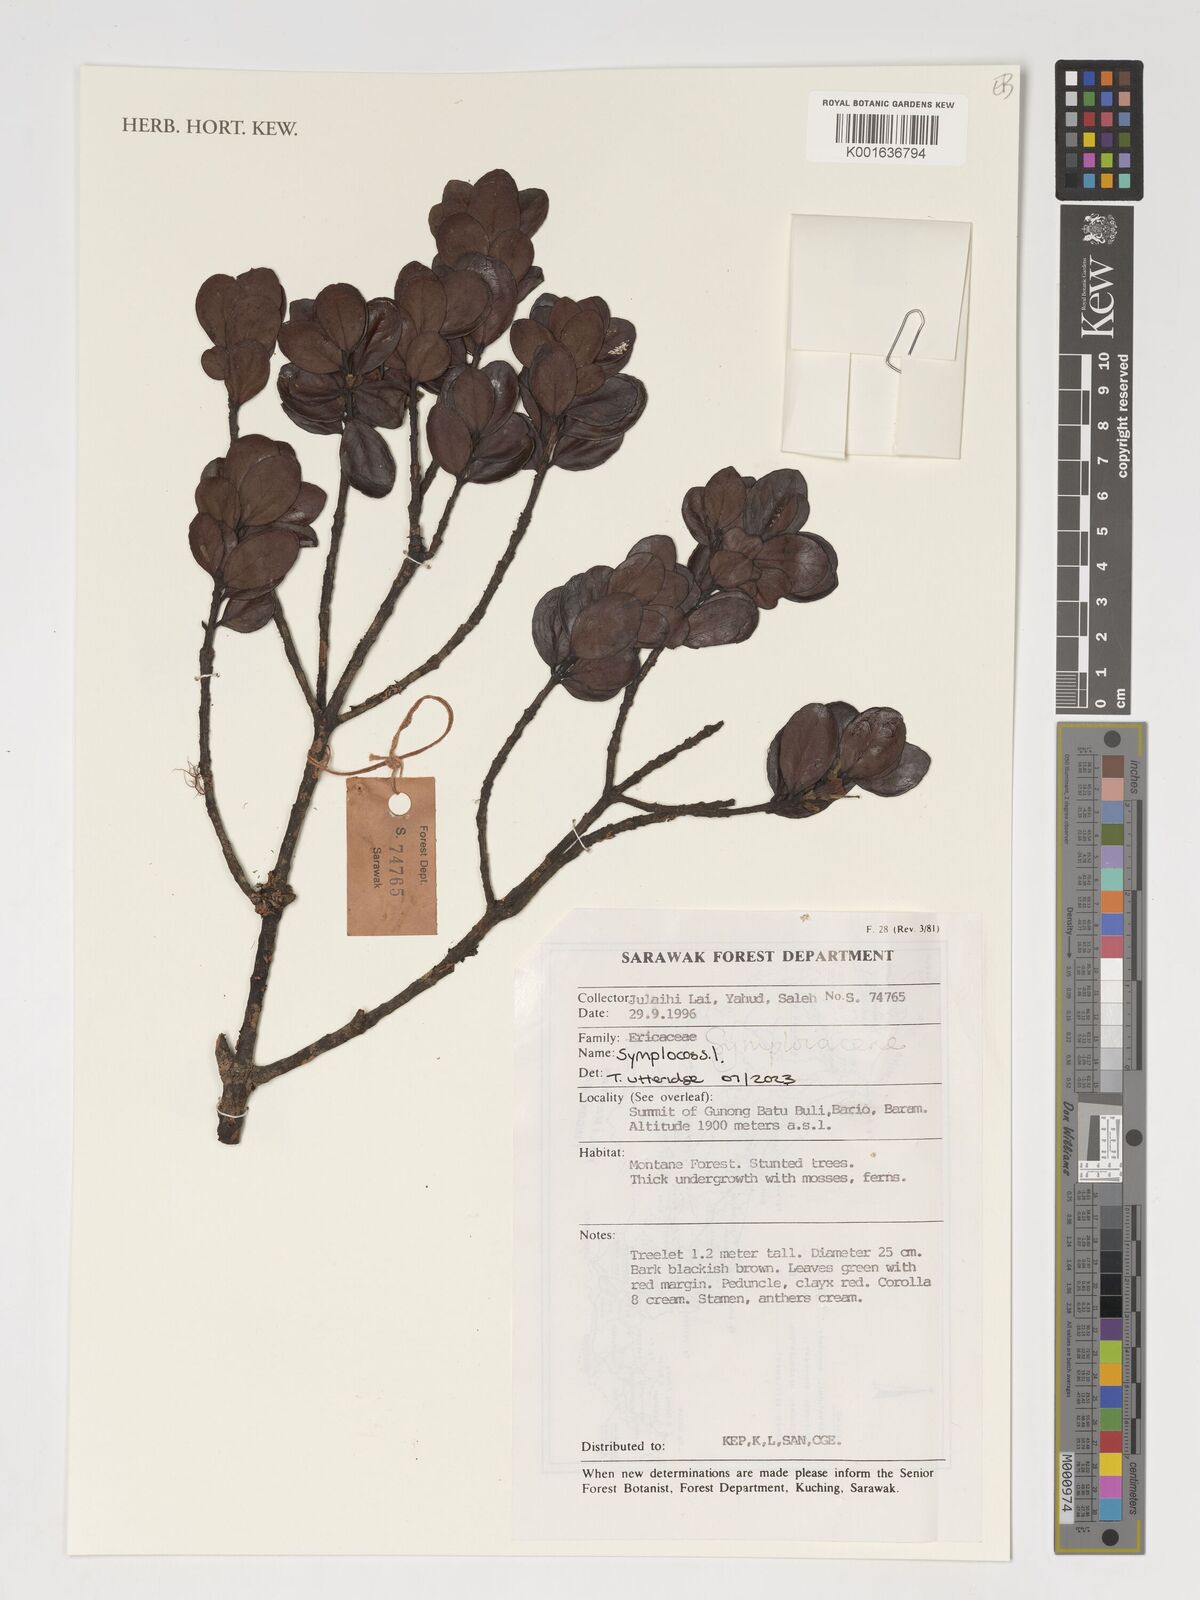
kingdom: Plantae
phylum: Tracheophyta
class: Magnoliopsida
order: Ericales
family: Symplocaceae
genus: Symplocos
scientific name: Symplocos
